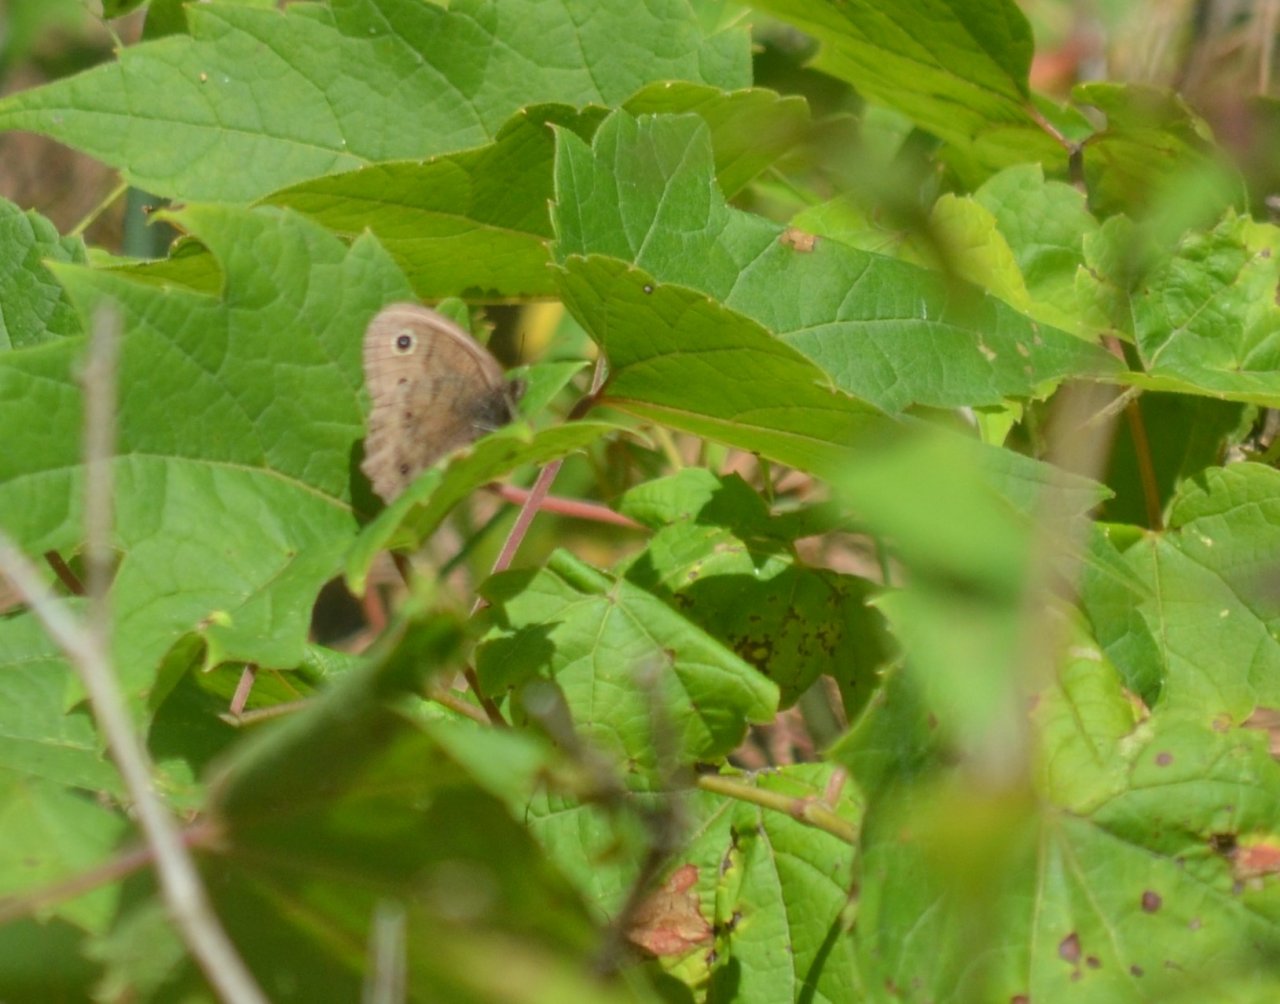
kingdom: Animalia
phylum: Arthropoda
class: Insecta
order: Lepidoptera
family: Nymphalidae
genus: Cercyonis
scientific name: Cercyonis pegala
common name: Common Wood-Nymph
